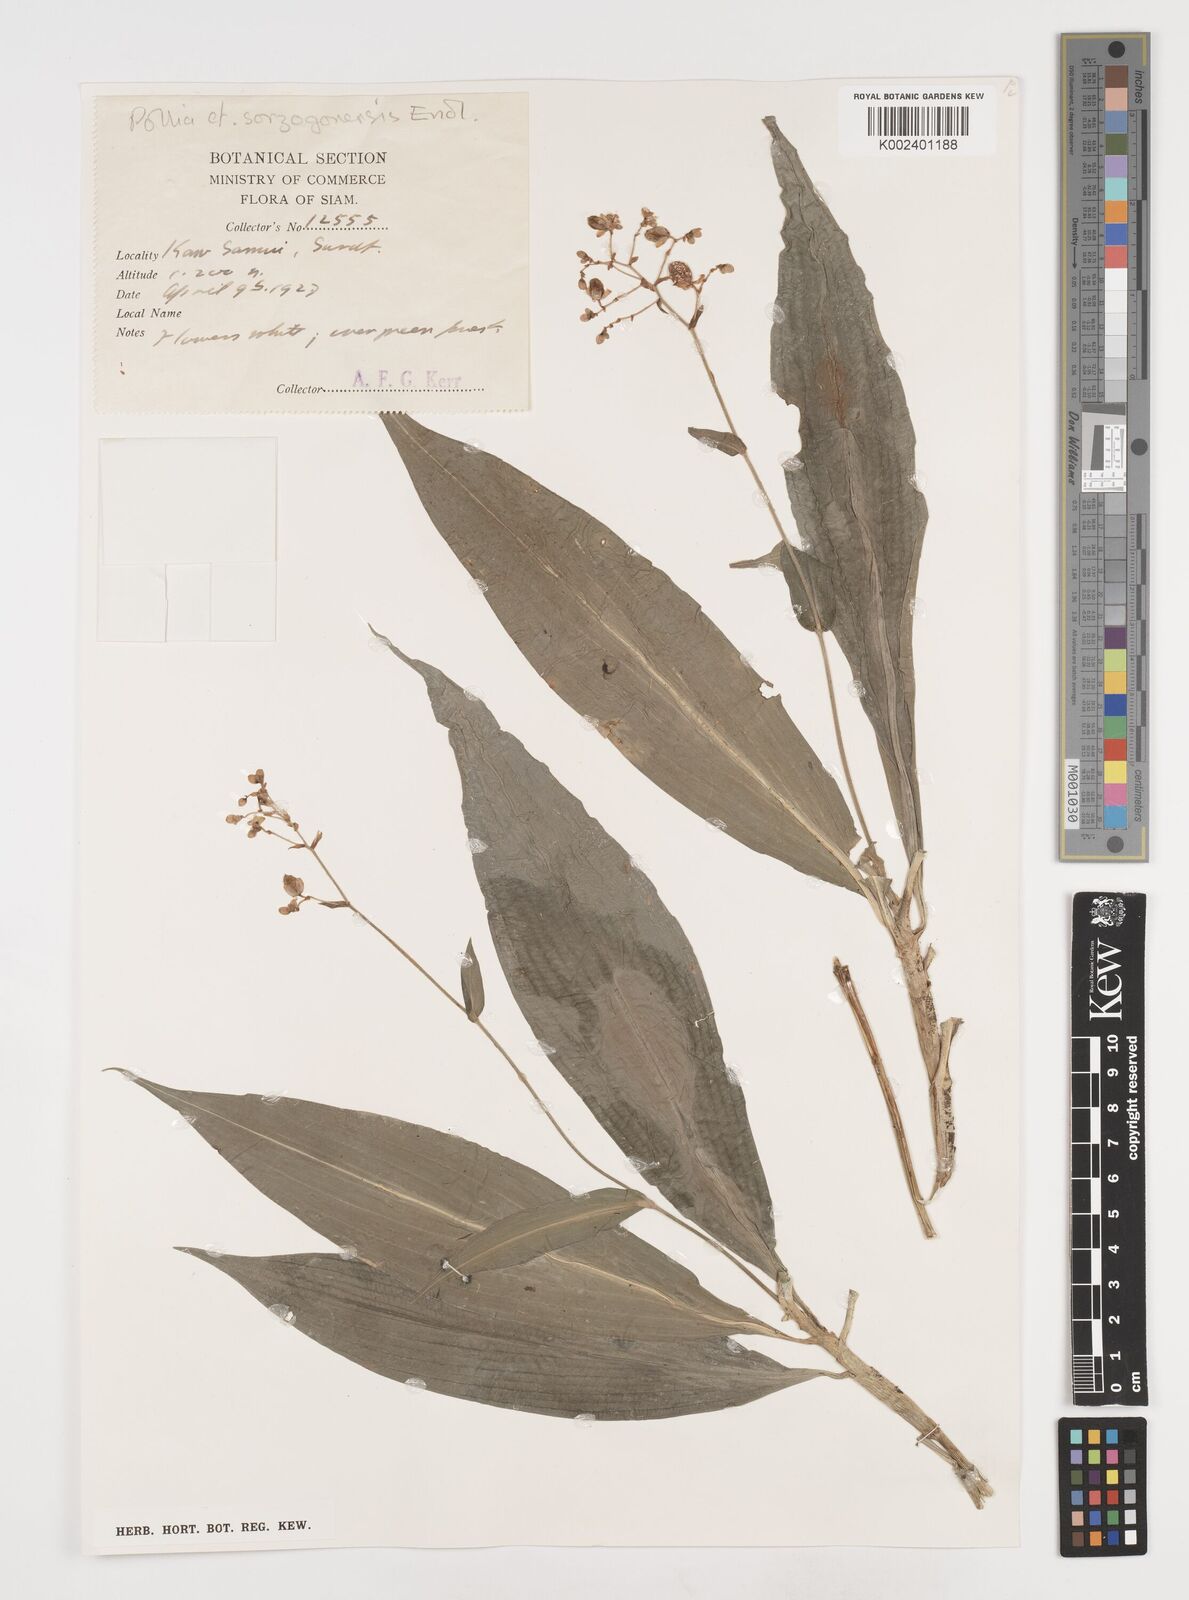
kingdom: Plantae
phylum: Tracheophyta
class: Liliopsida
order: Commelinales
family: Commelinaceae
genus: Pollia
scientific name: Pollia secundiflora
